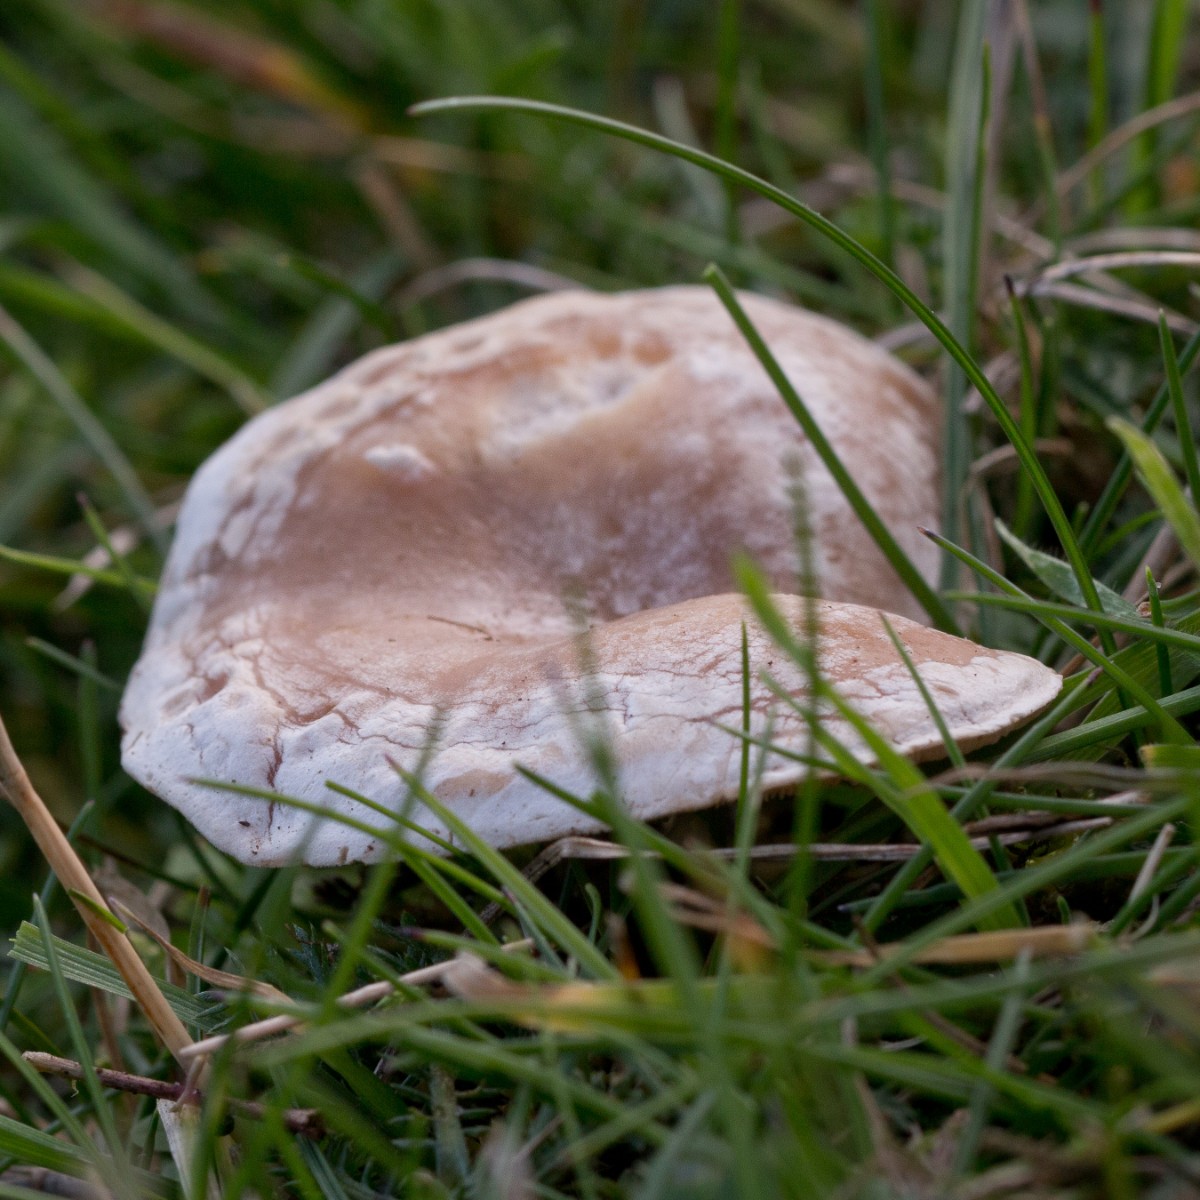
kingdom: Fungi
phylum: Basidiomycota
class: Agaricomycetes
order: Agaricales
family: Tricholomataceae
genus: Clitocybe
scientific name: Clitocybe rivulosa
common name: eng-tragthat
